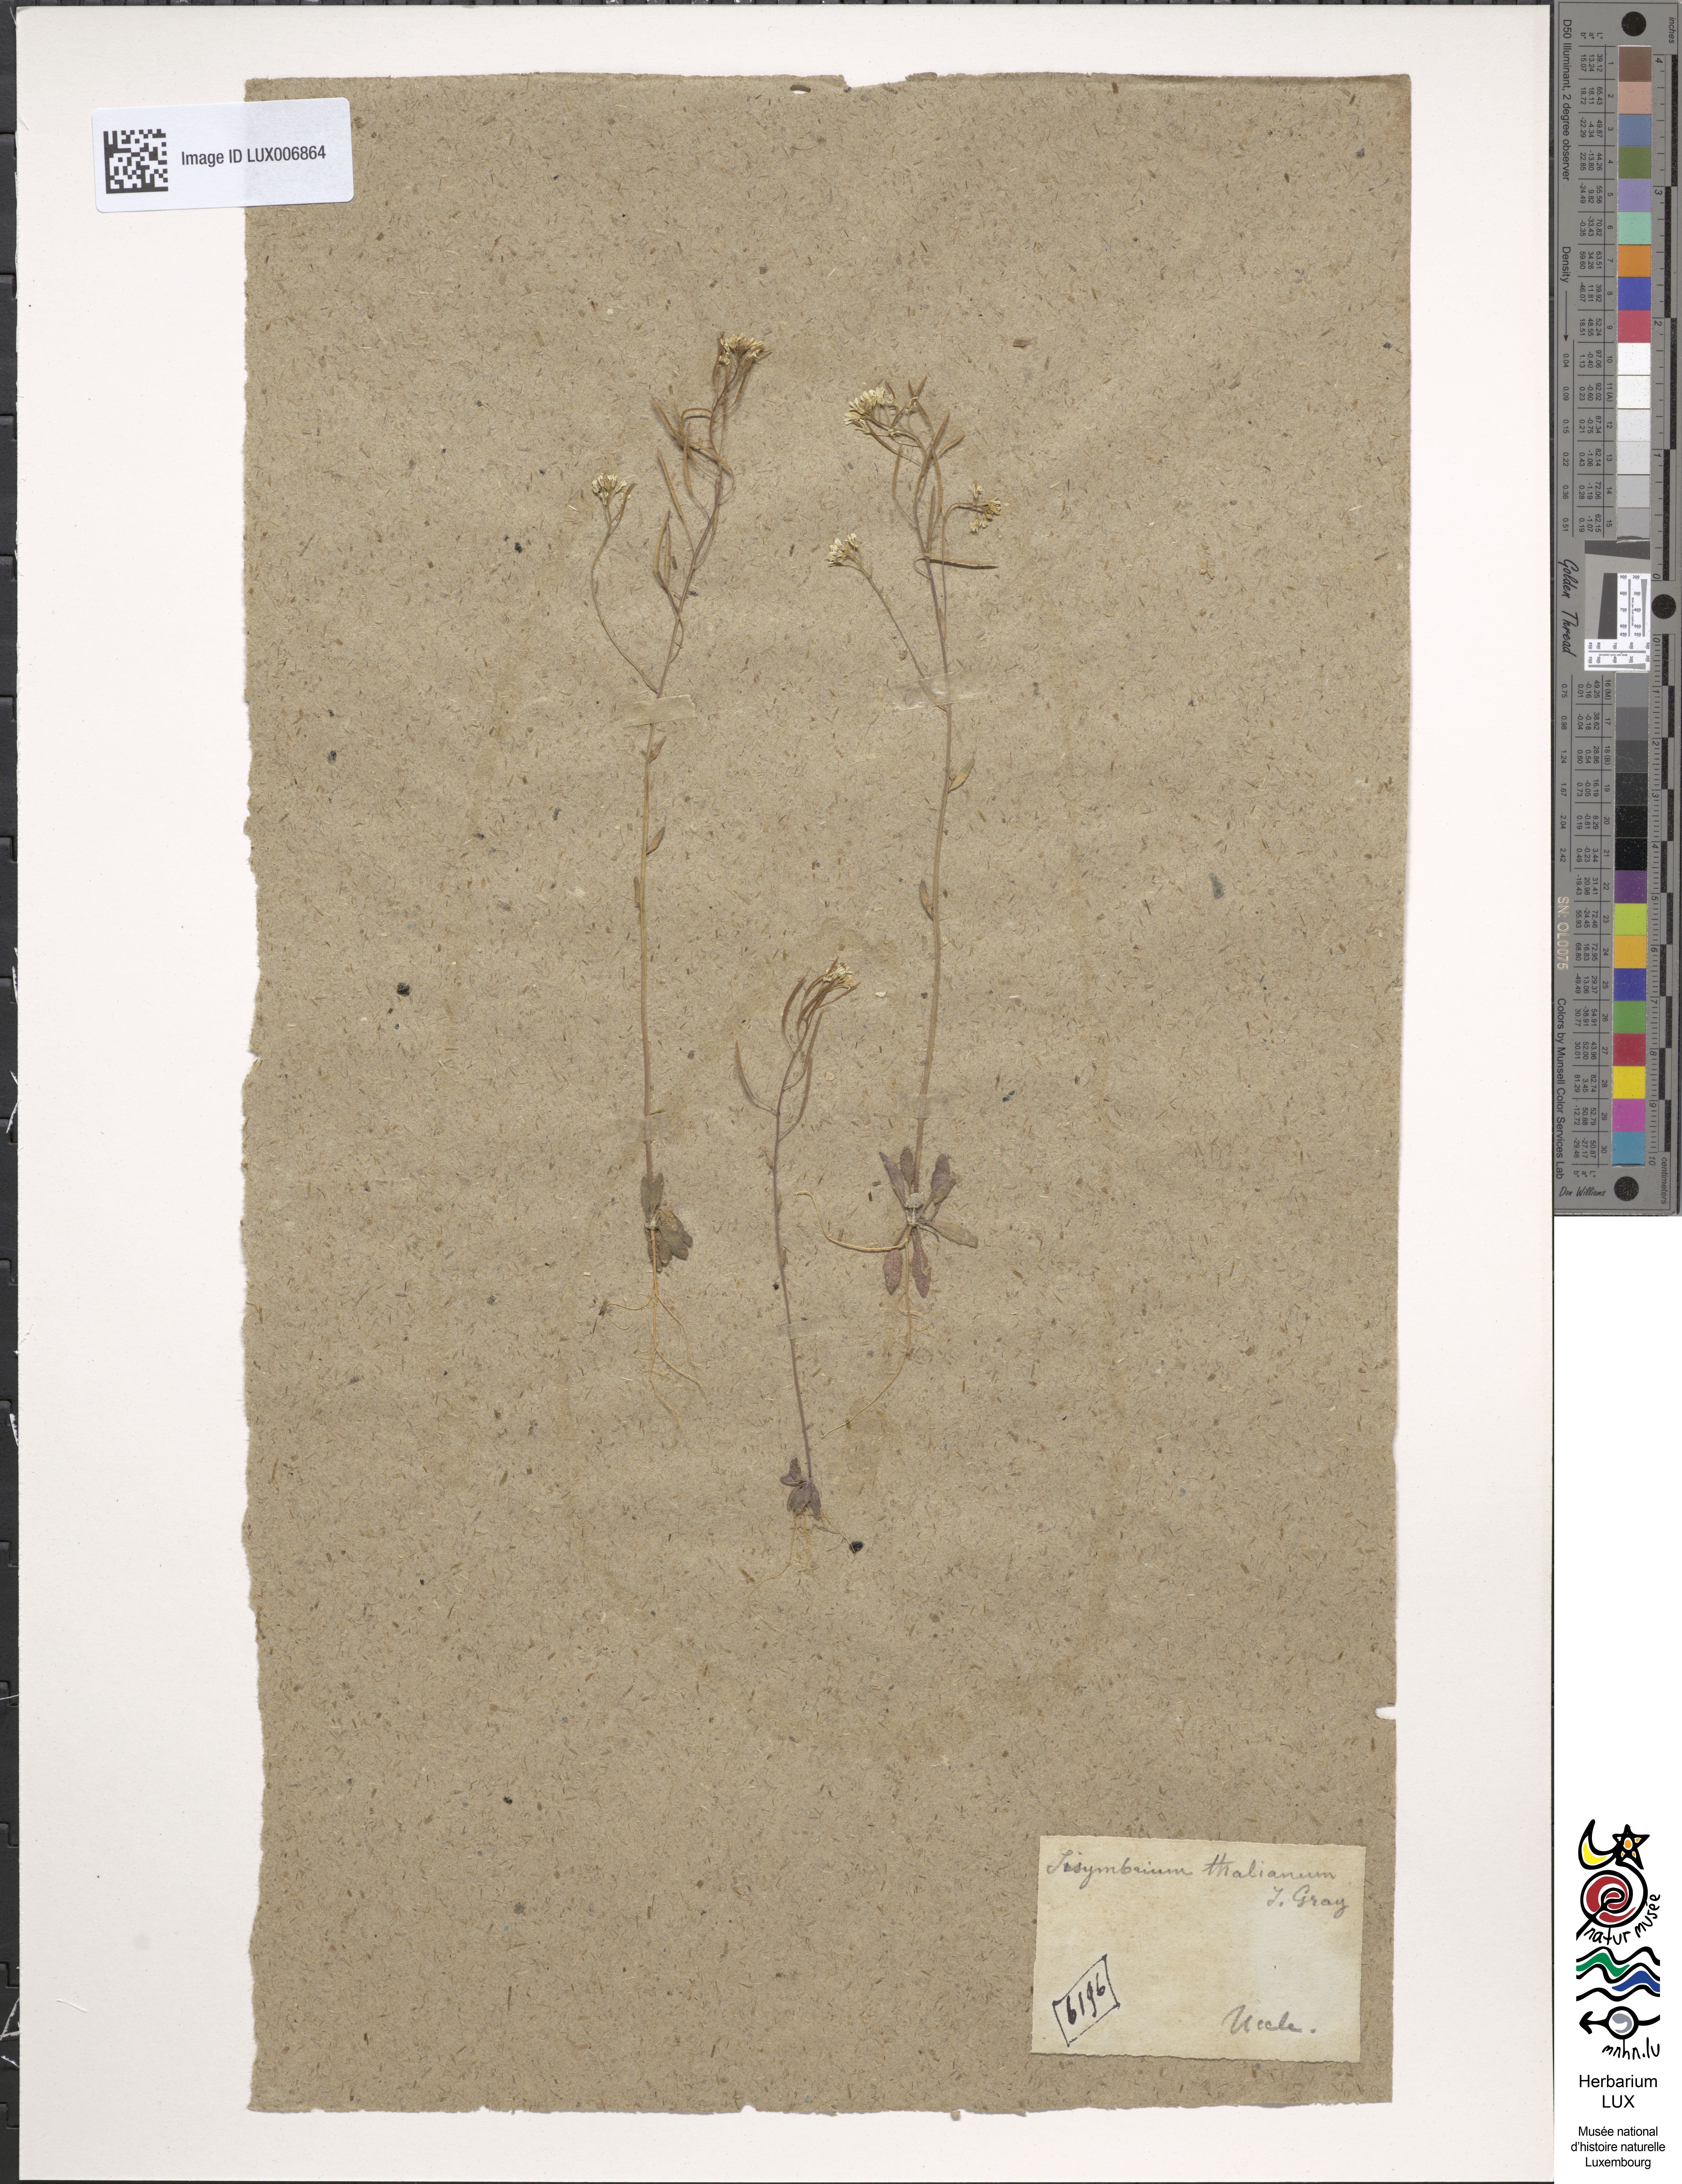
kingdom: Plantae
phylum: Tracheophyta
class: Magnoliopsida
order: Brassicales
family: Brassicaceae
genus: Arabidopsis
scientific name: Arabidopsis thaliana
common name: Thale cress
